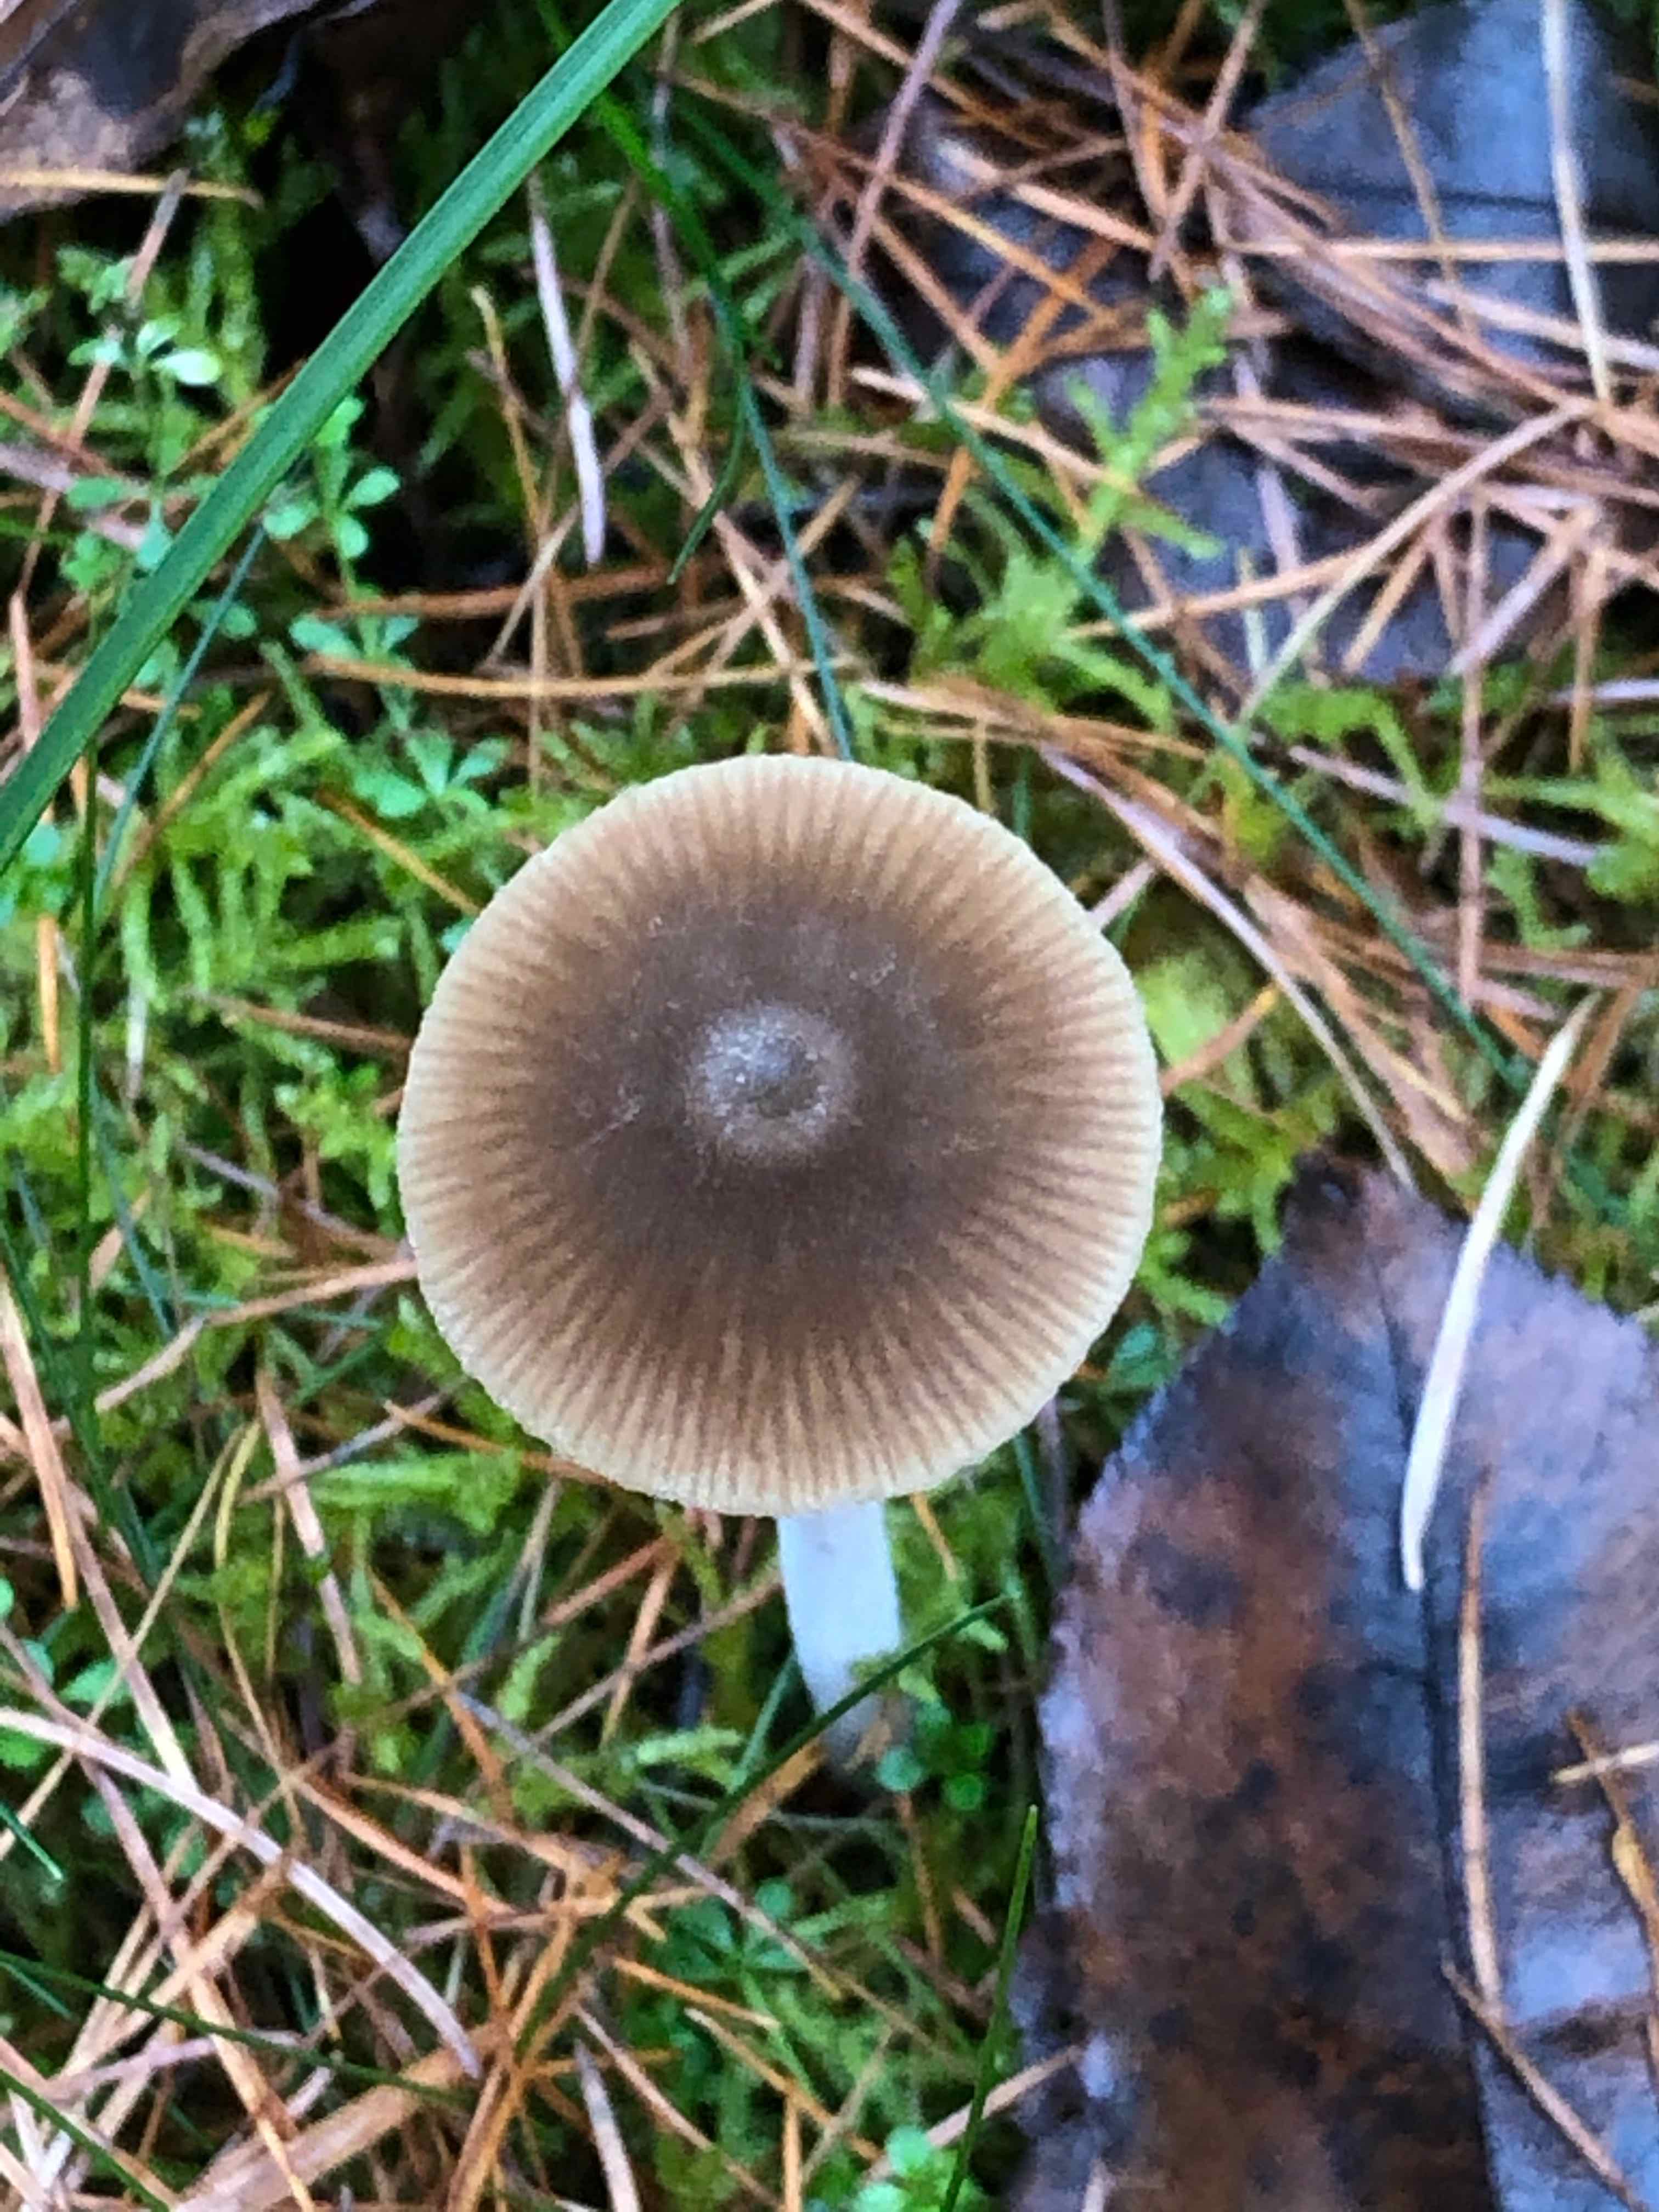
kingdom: Fungi
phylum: Basidiomycota
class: Agaricomycetes
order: Agaricales
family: Entolomataceae
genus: Entoloma
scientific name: Entoloma
